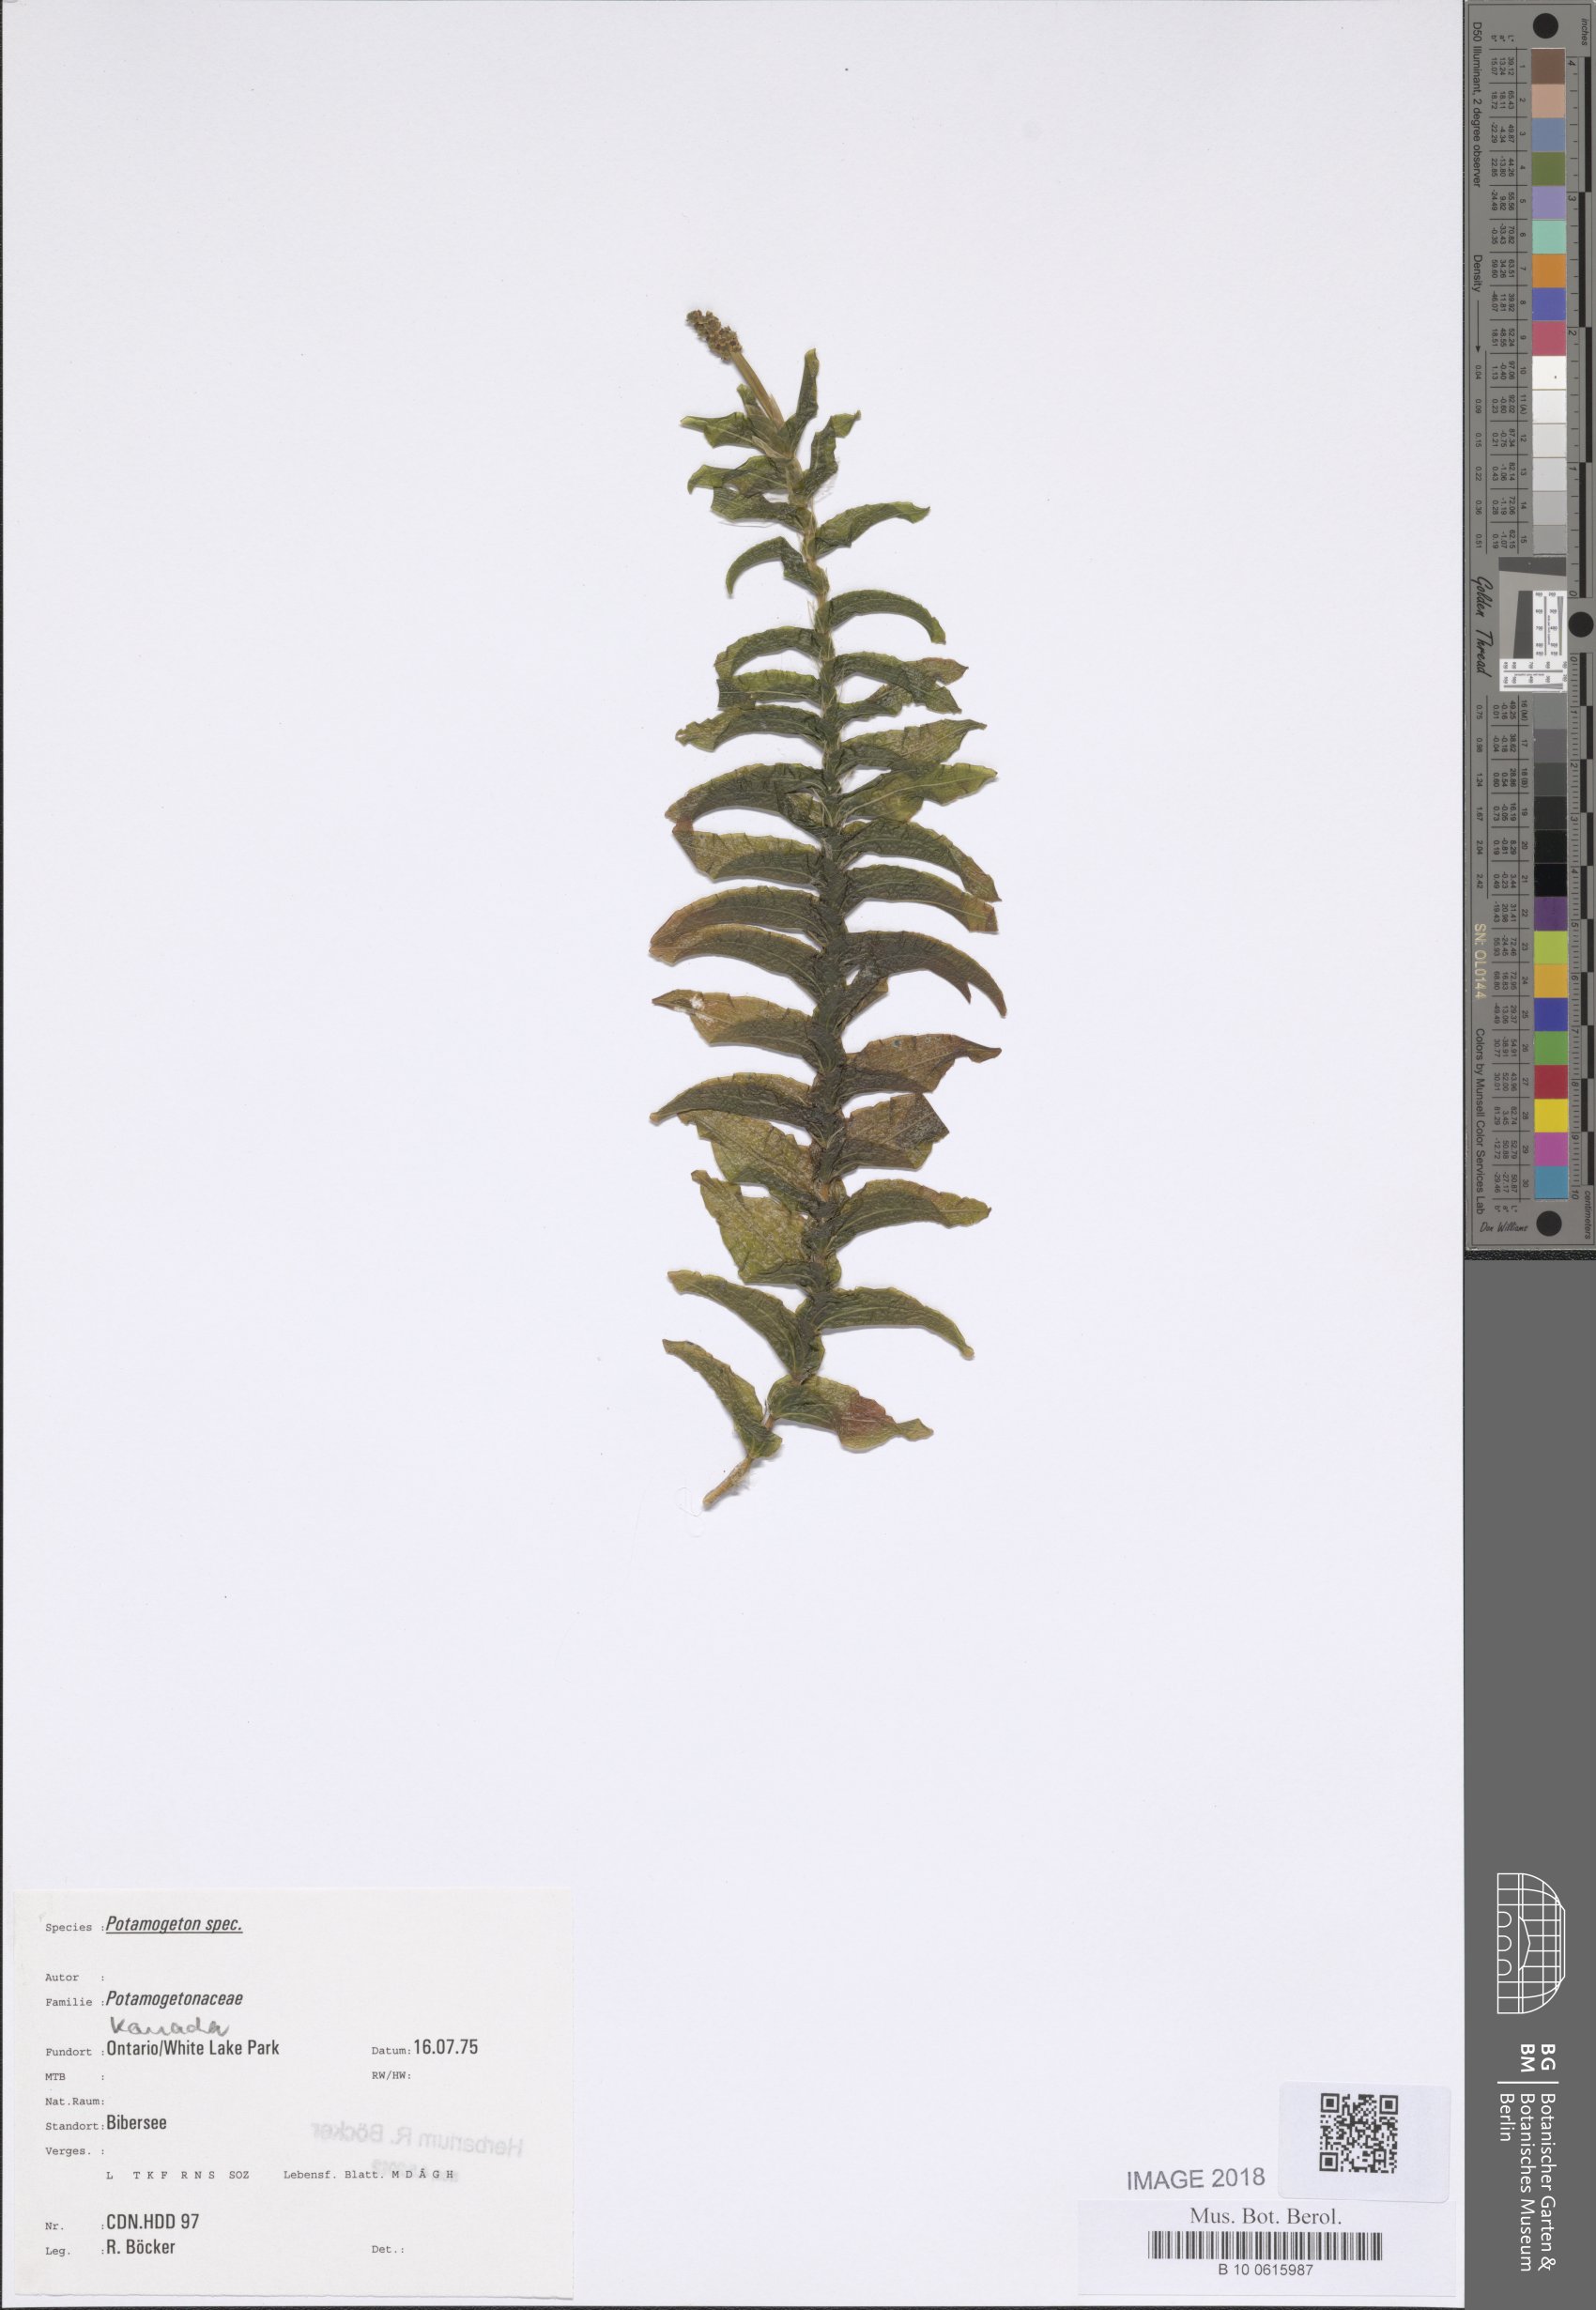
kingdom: Plantae
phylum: Tracheophyta
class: Liliopsida
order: Alismatales
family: Potamogetonaceae
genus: Potamogeton
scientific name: Potamogeton richardsonii
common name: Richardson's pondweed
